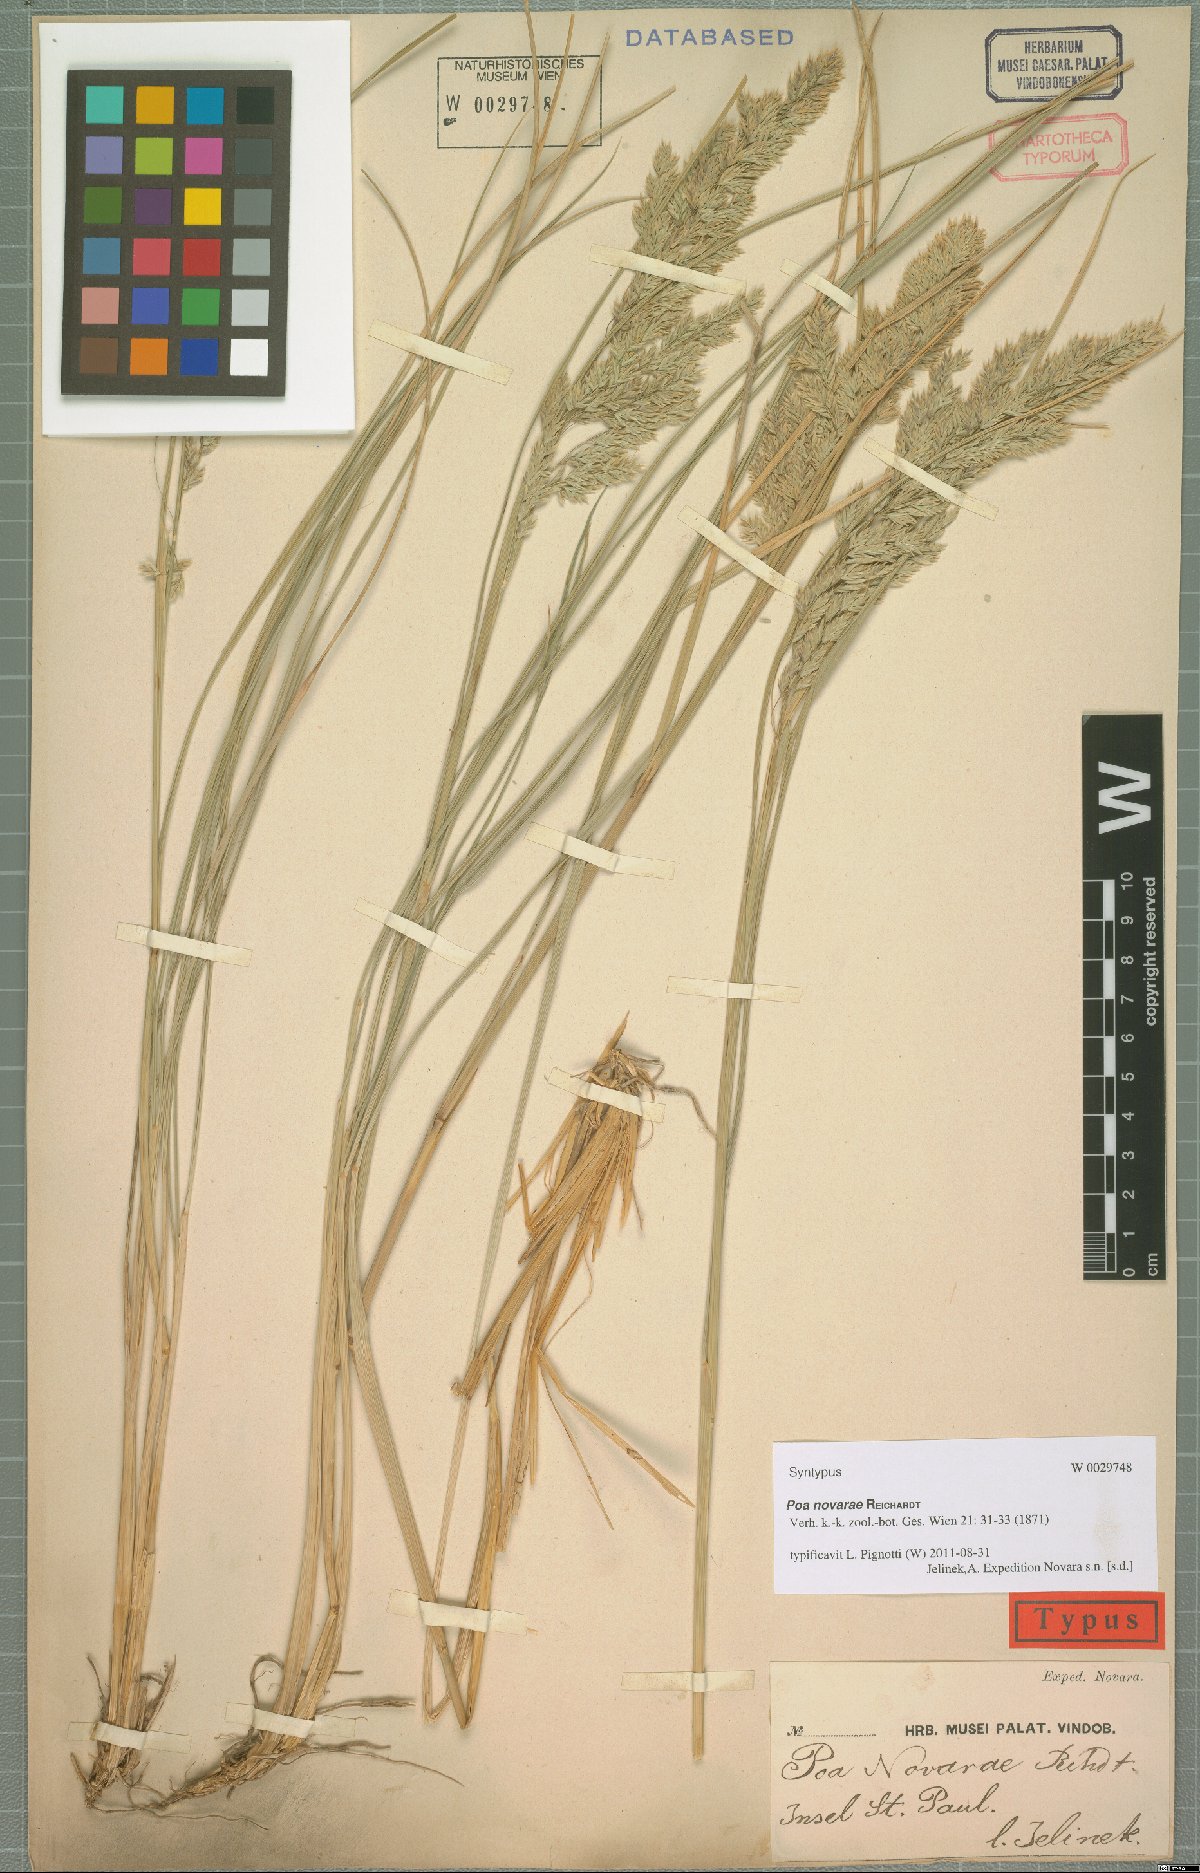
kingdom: Plantae
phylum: Tracheophyta
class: Liliopsida
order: Poales
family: Poaceae
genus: Poa
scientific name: Poa novarae
